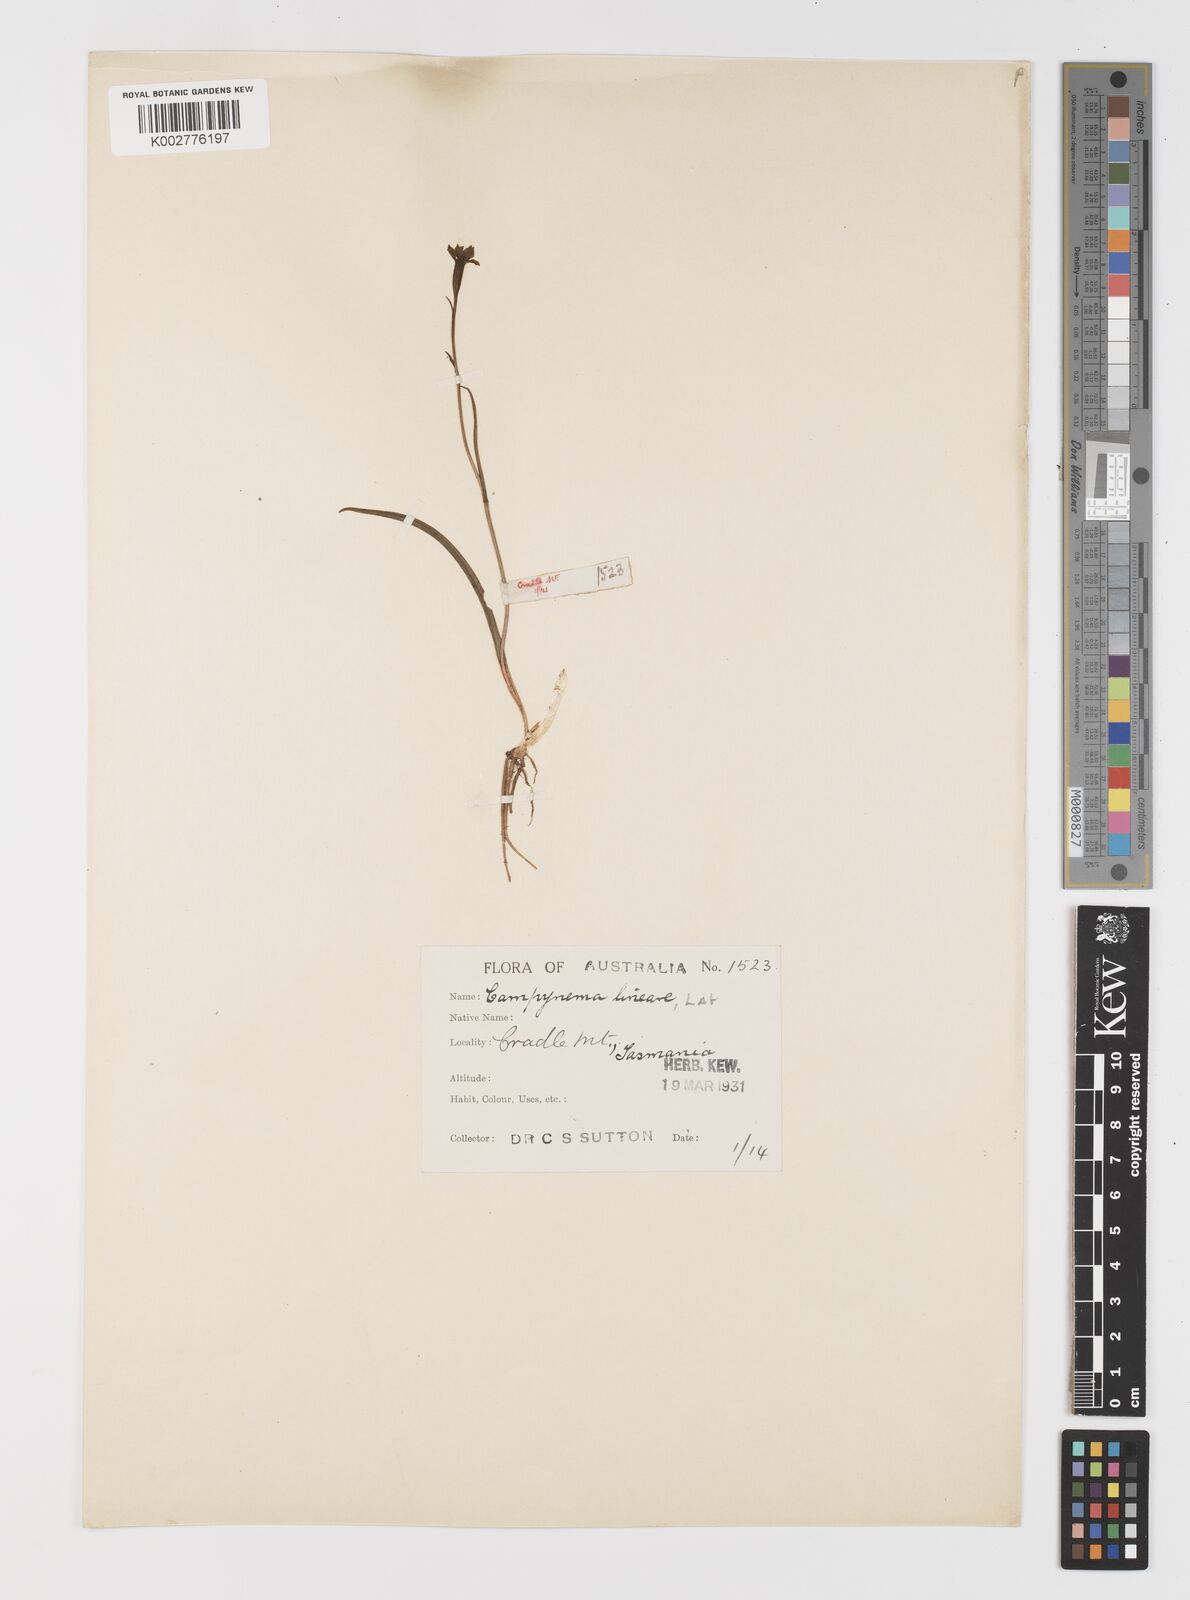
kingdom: Plantae
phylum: Tracheophyta
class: Liliopsida
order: Liliales
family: Campynemataceae
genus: Campynema
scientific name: Campynema lineare
